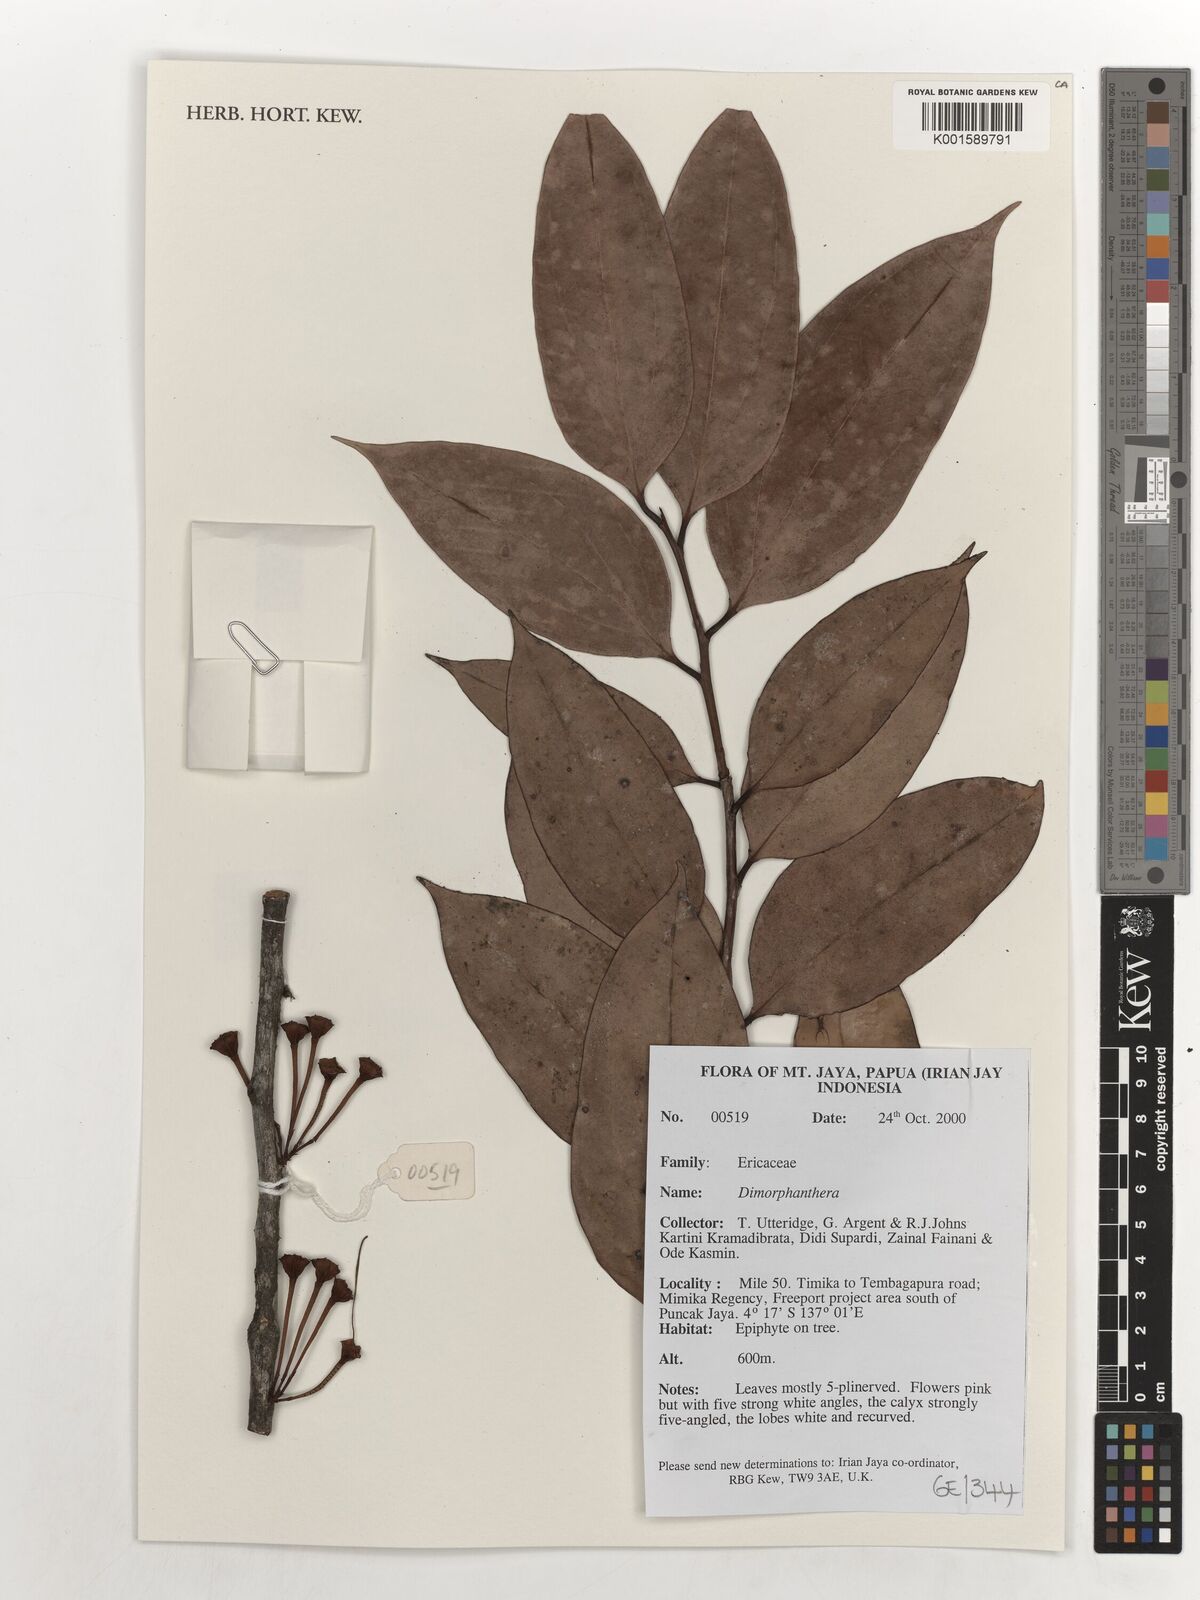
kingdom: Plantae
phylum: Tracheophyta
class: Magnoliopsida
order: Ericales
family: Ericaceae
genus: Dimorphanthera
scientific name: Dimorphanthera
